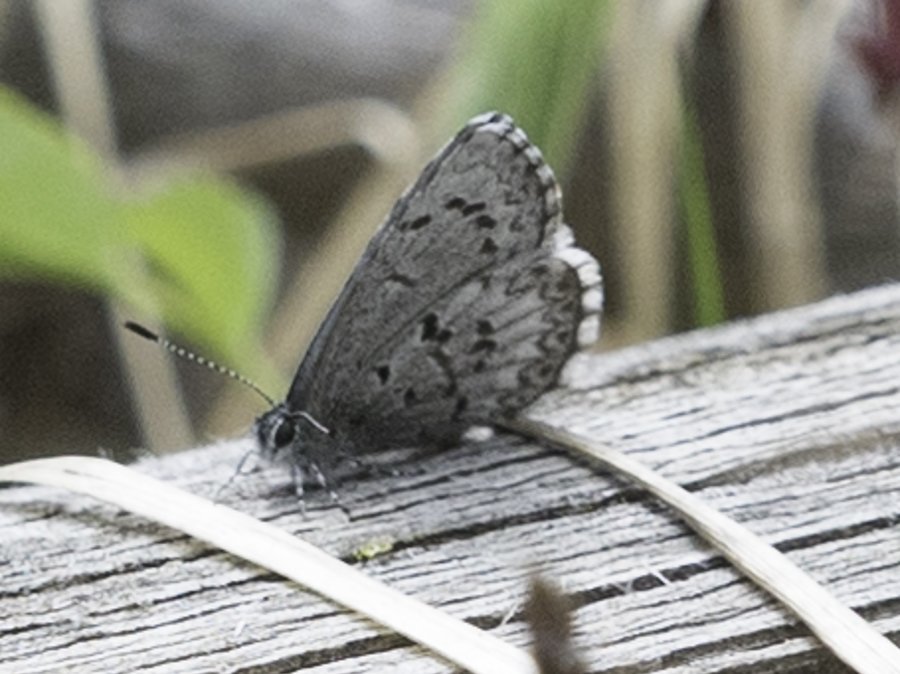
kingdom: Animalia
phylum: Arthropoda
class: Insecta
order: Lepidoptera
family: Lycaenidae
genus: Celastrina
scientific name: Celastrina lucia
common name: Northern Spring Azure
